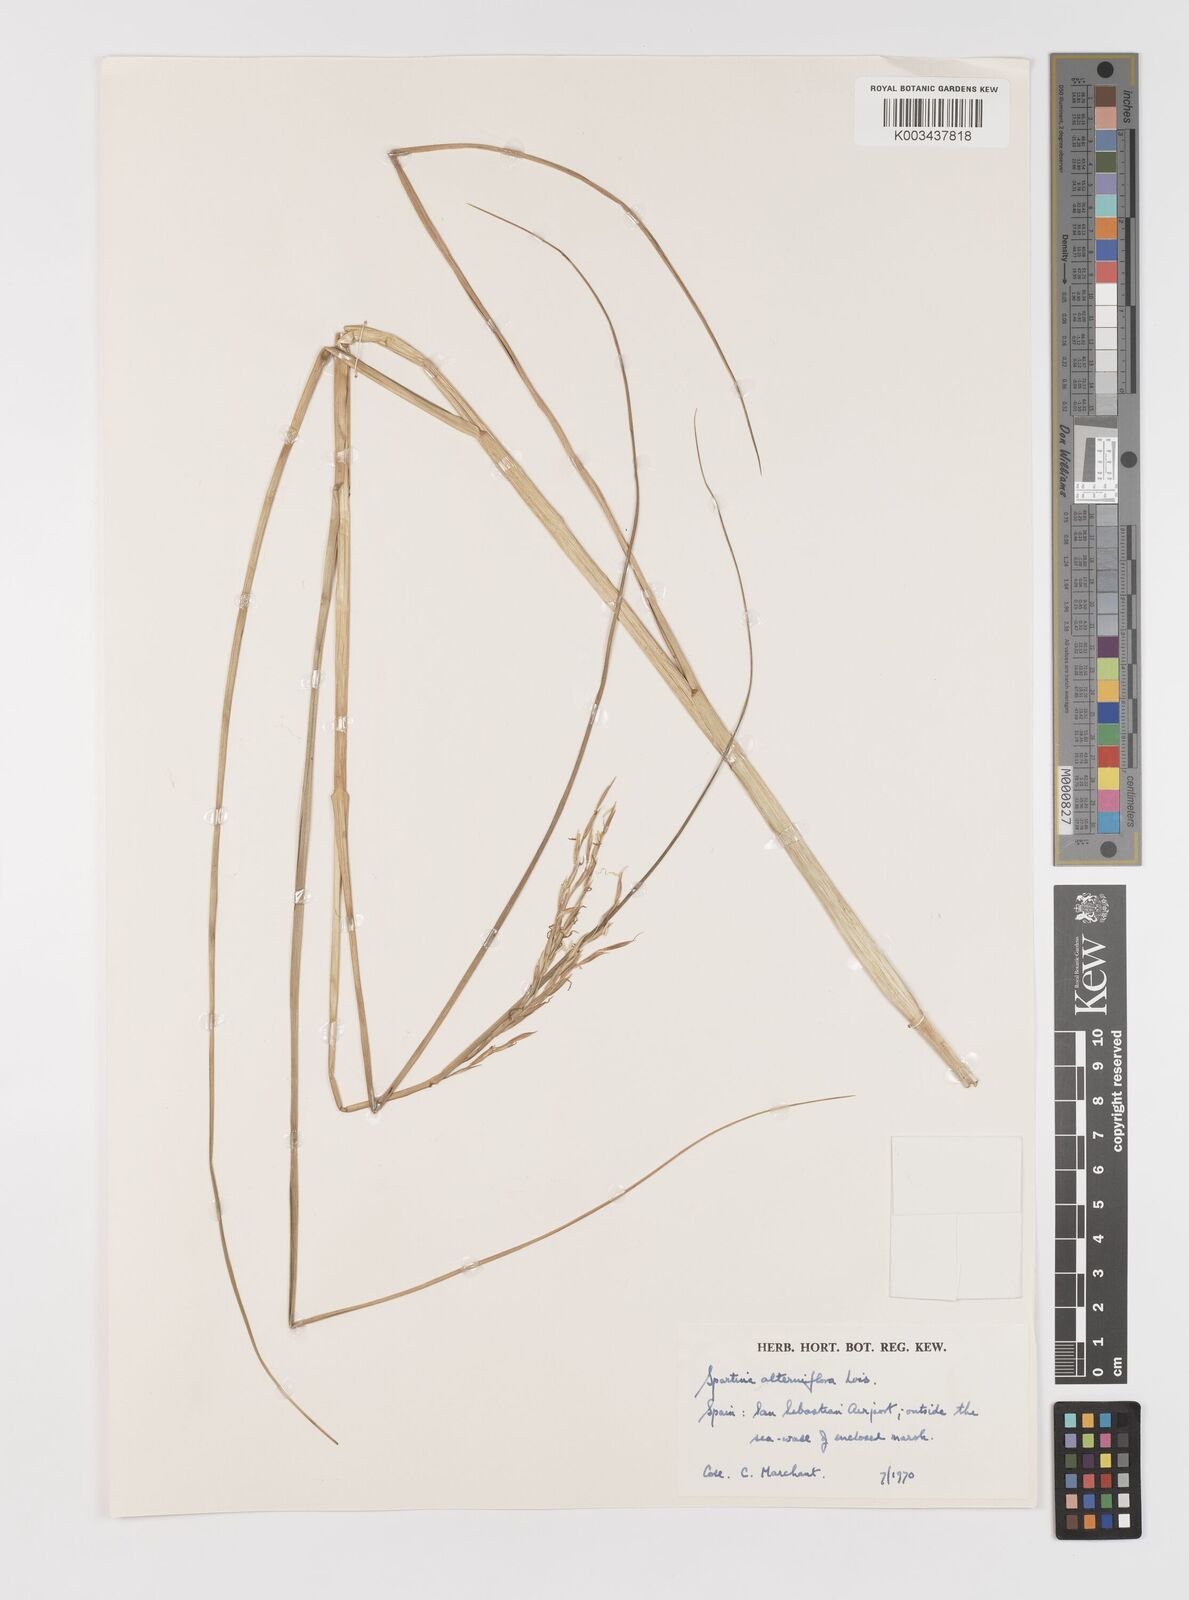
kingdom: Plantae
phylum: Tracheophyta
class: Liliopsida
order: Poales
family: Poaceae
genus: Sporobolus
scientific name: Sporobolus alterniflorus
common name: Atlantic cordgrass
